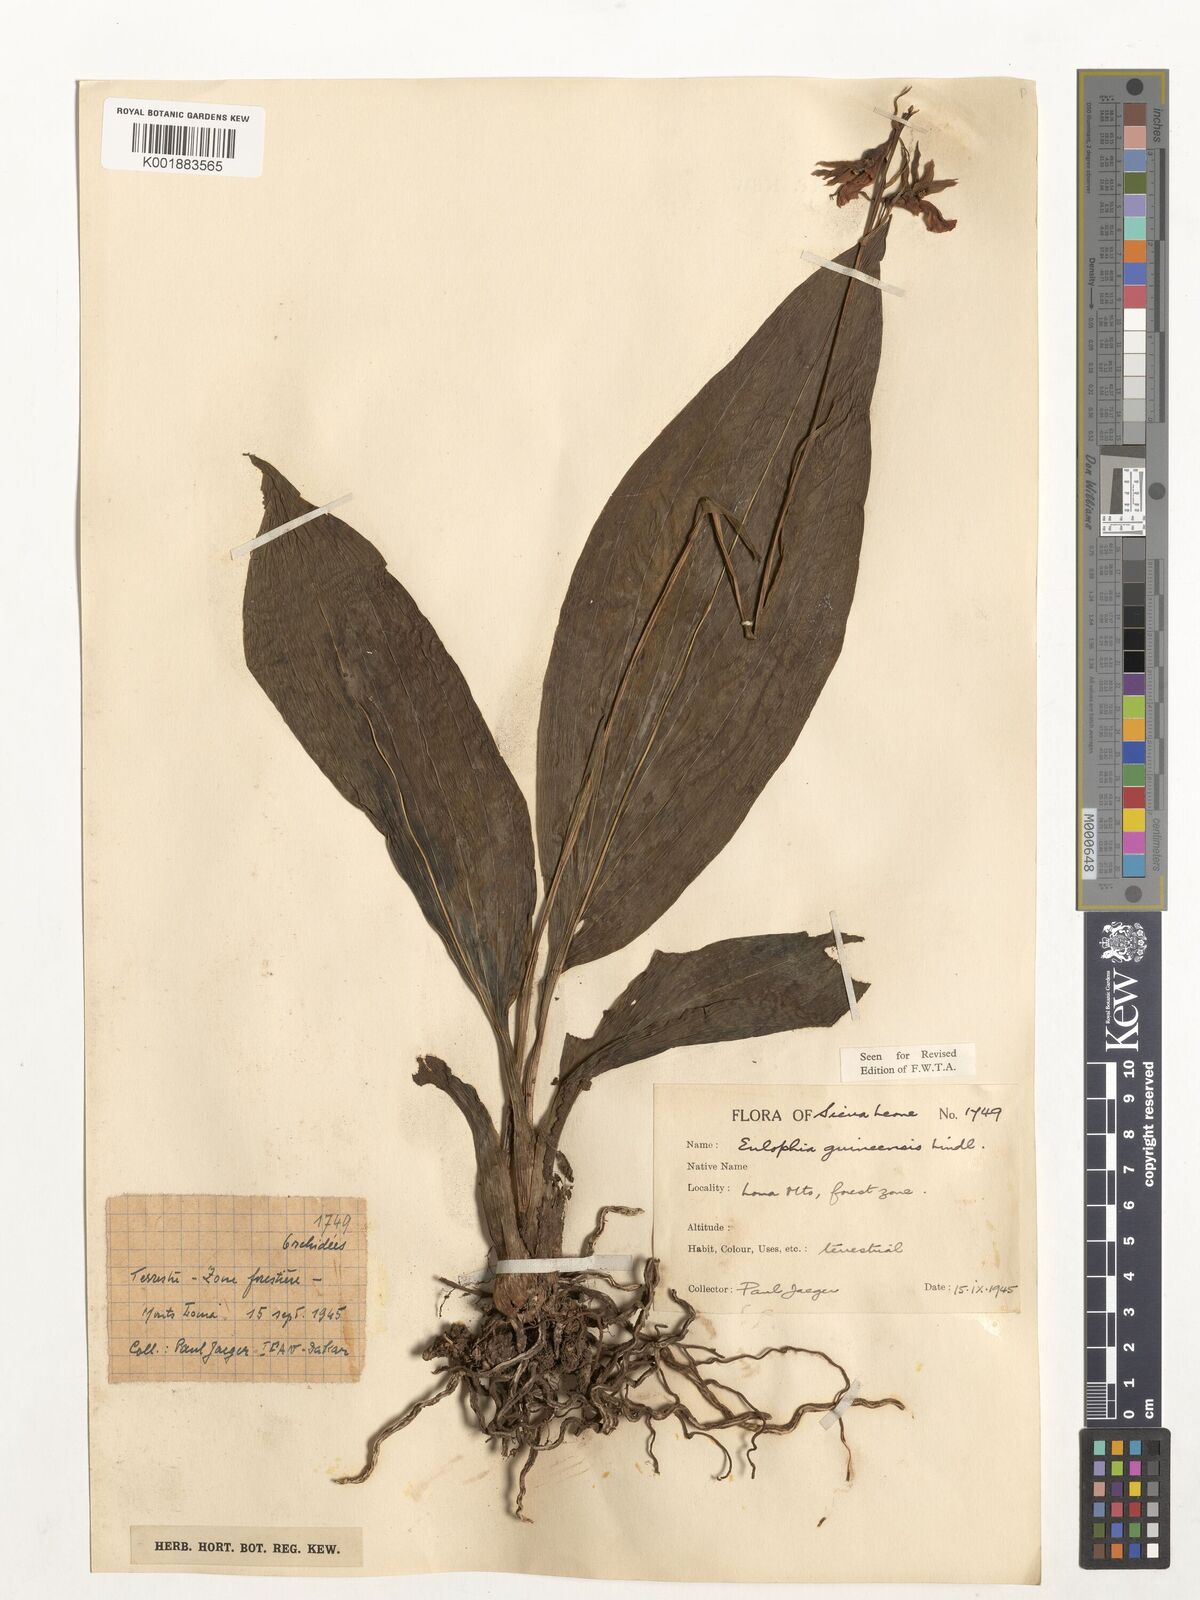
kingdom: Plantae
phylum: Tracheophyta
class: Liliopsida
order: Alismatales
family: Hydrocharitaceae
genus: Najas
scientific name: Najas baldwinii
